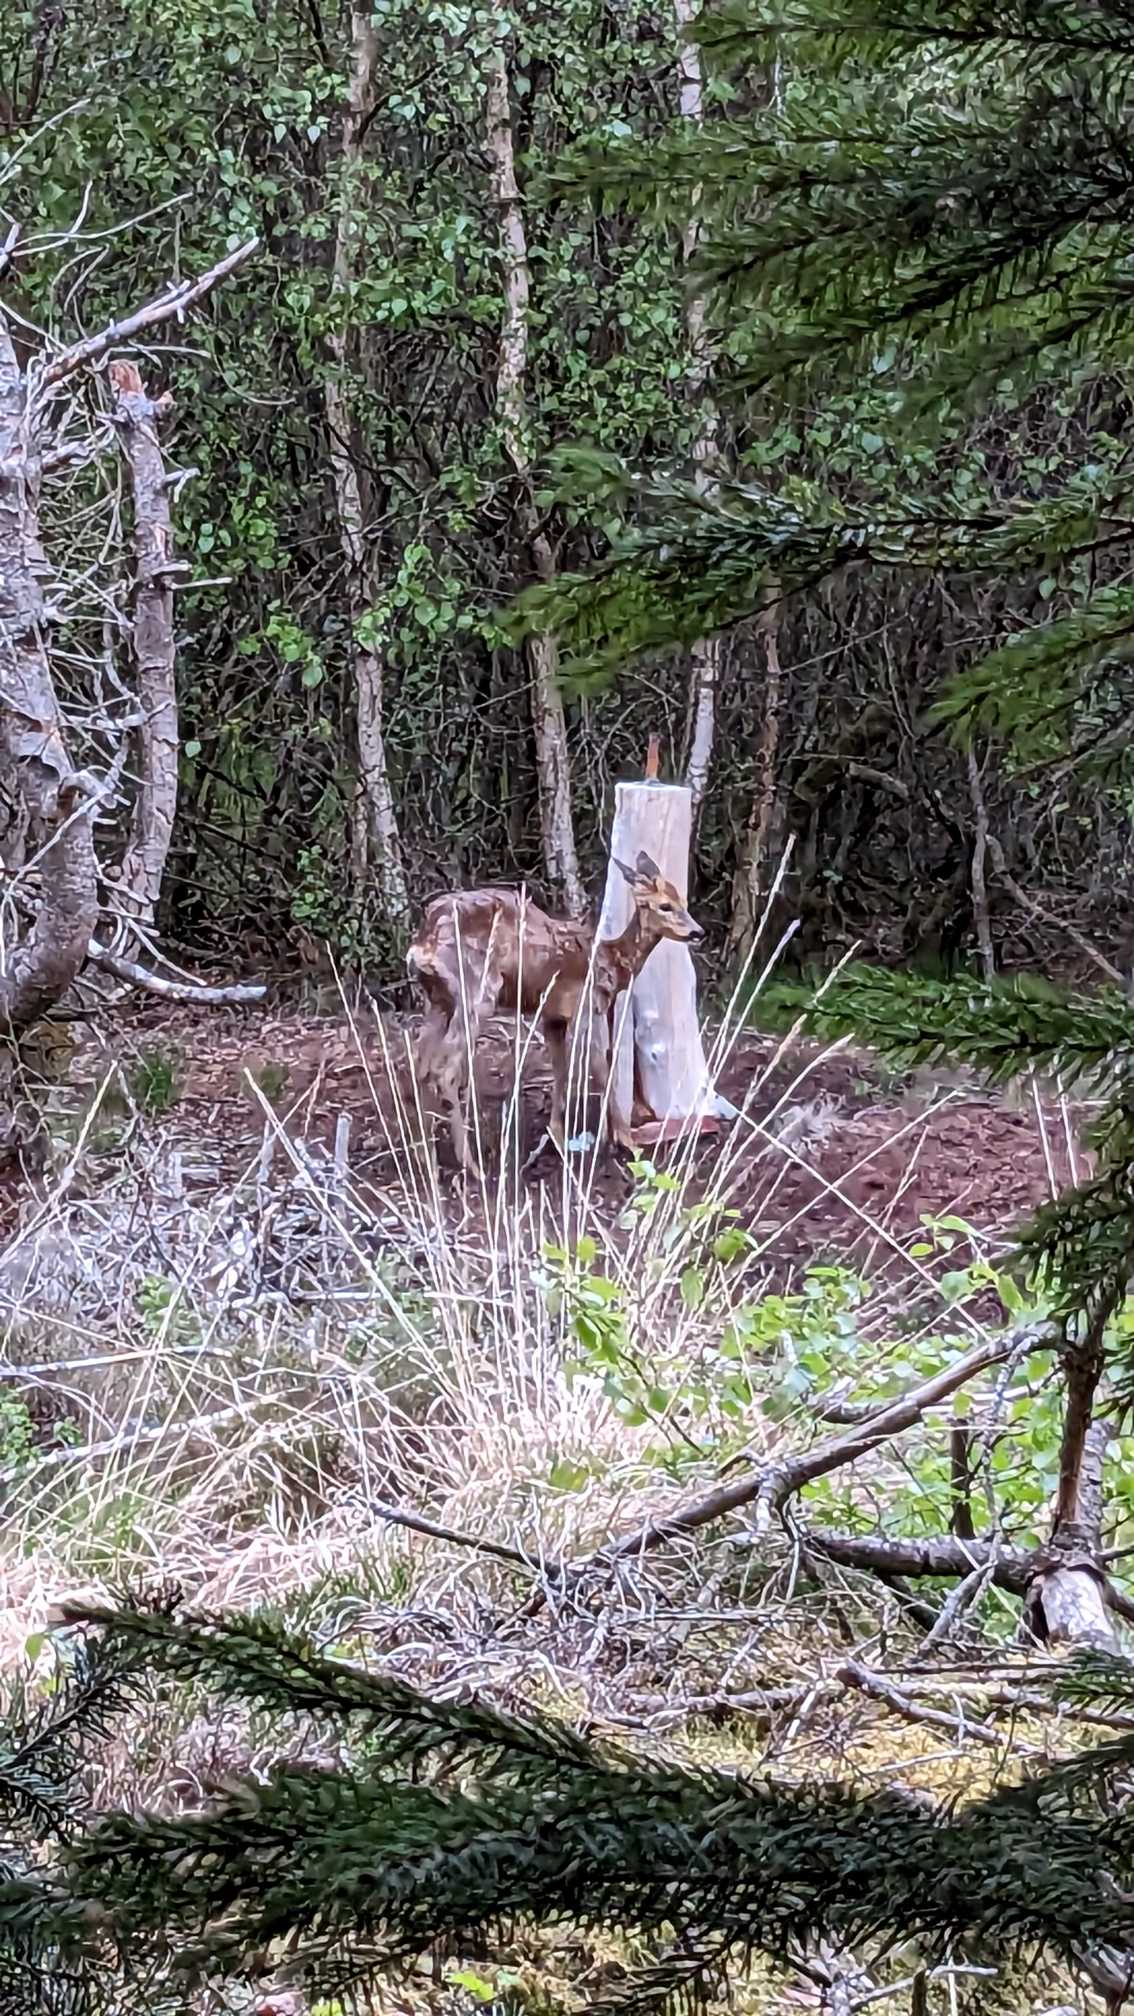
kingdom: Animalia
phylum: Chordata
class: Mammalia
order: Artiodactyla
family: Cervidae
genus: Capreolus
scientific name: Capreolus capreolus
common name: Rådyr
